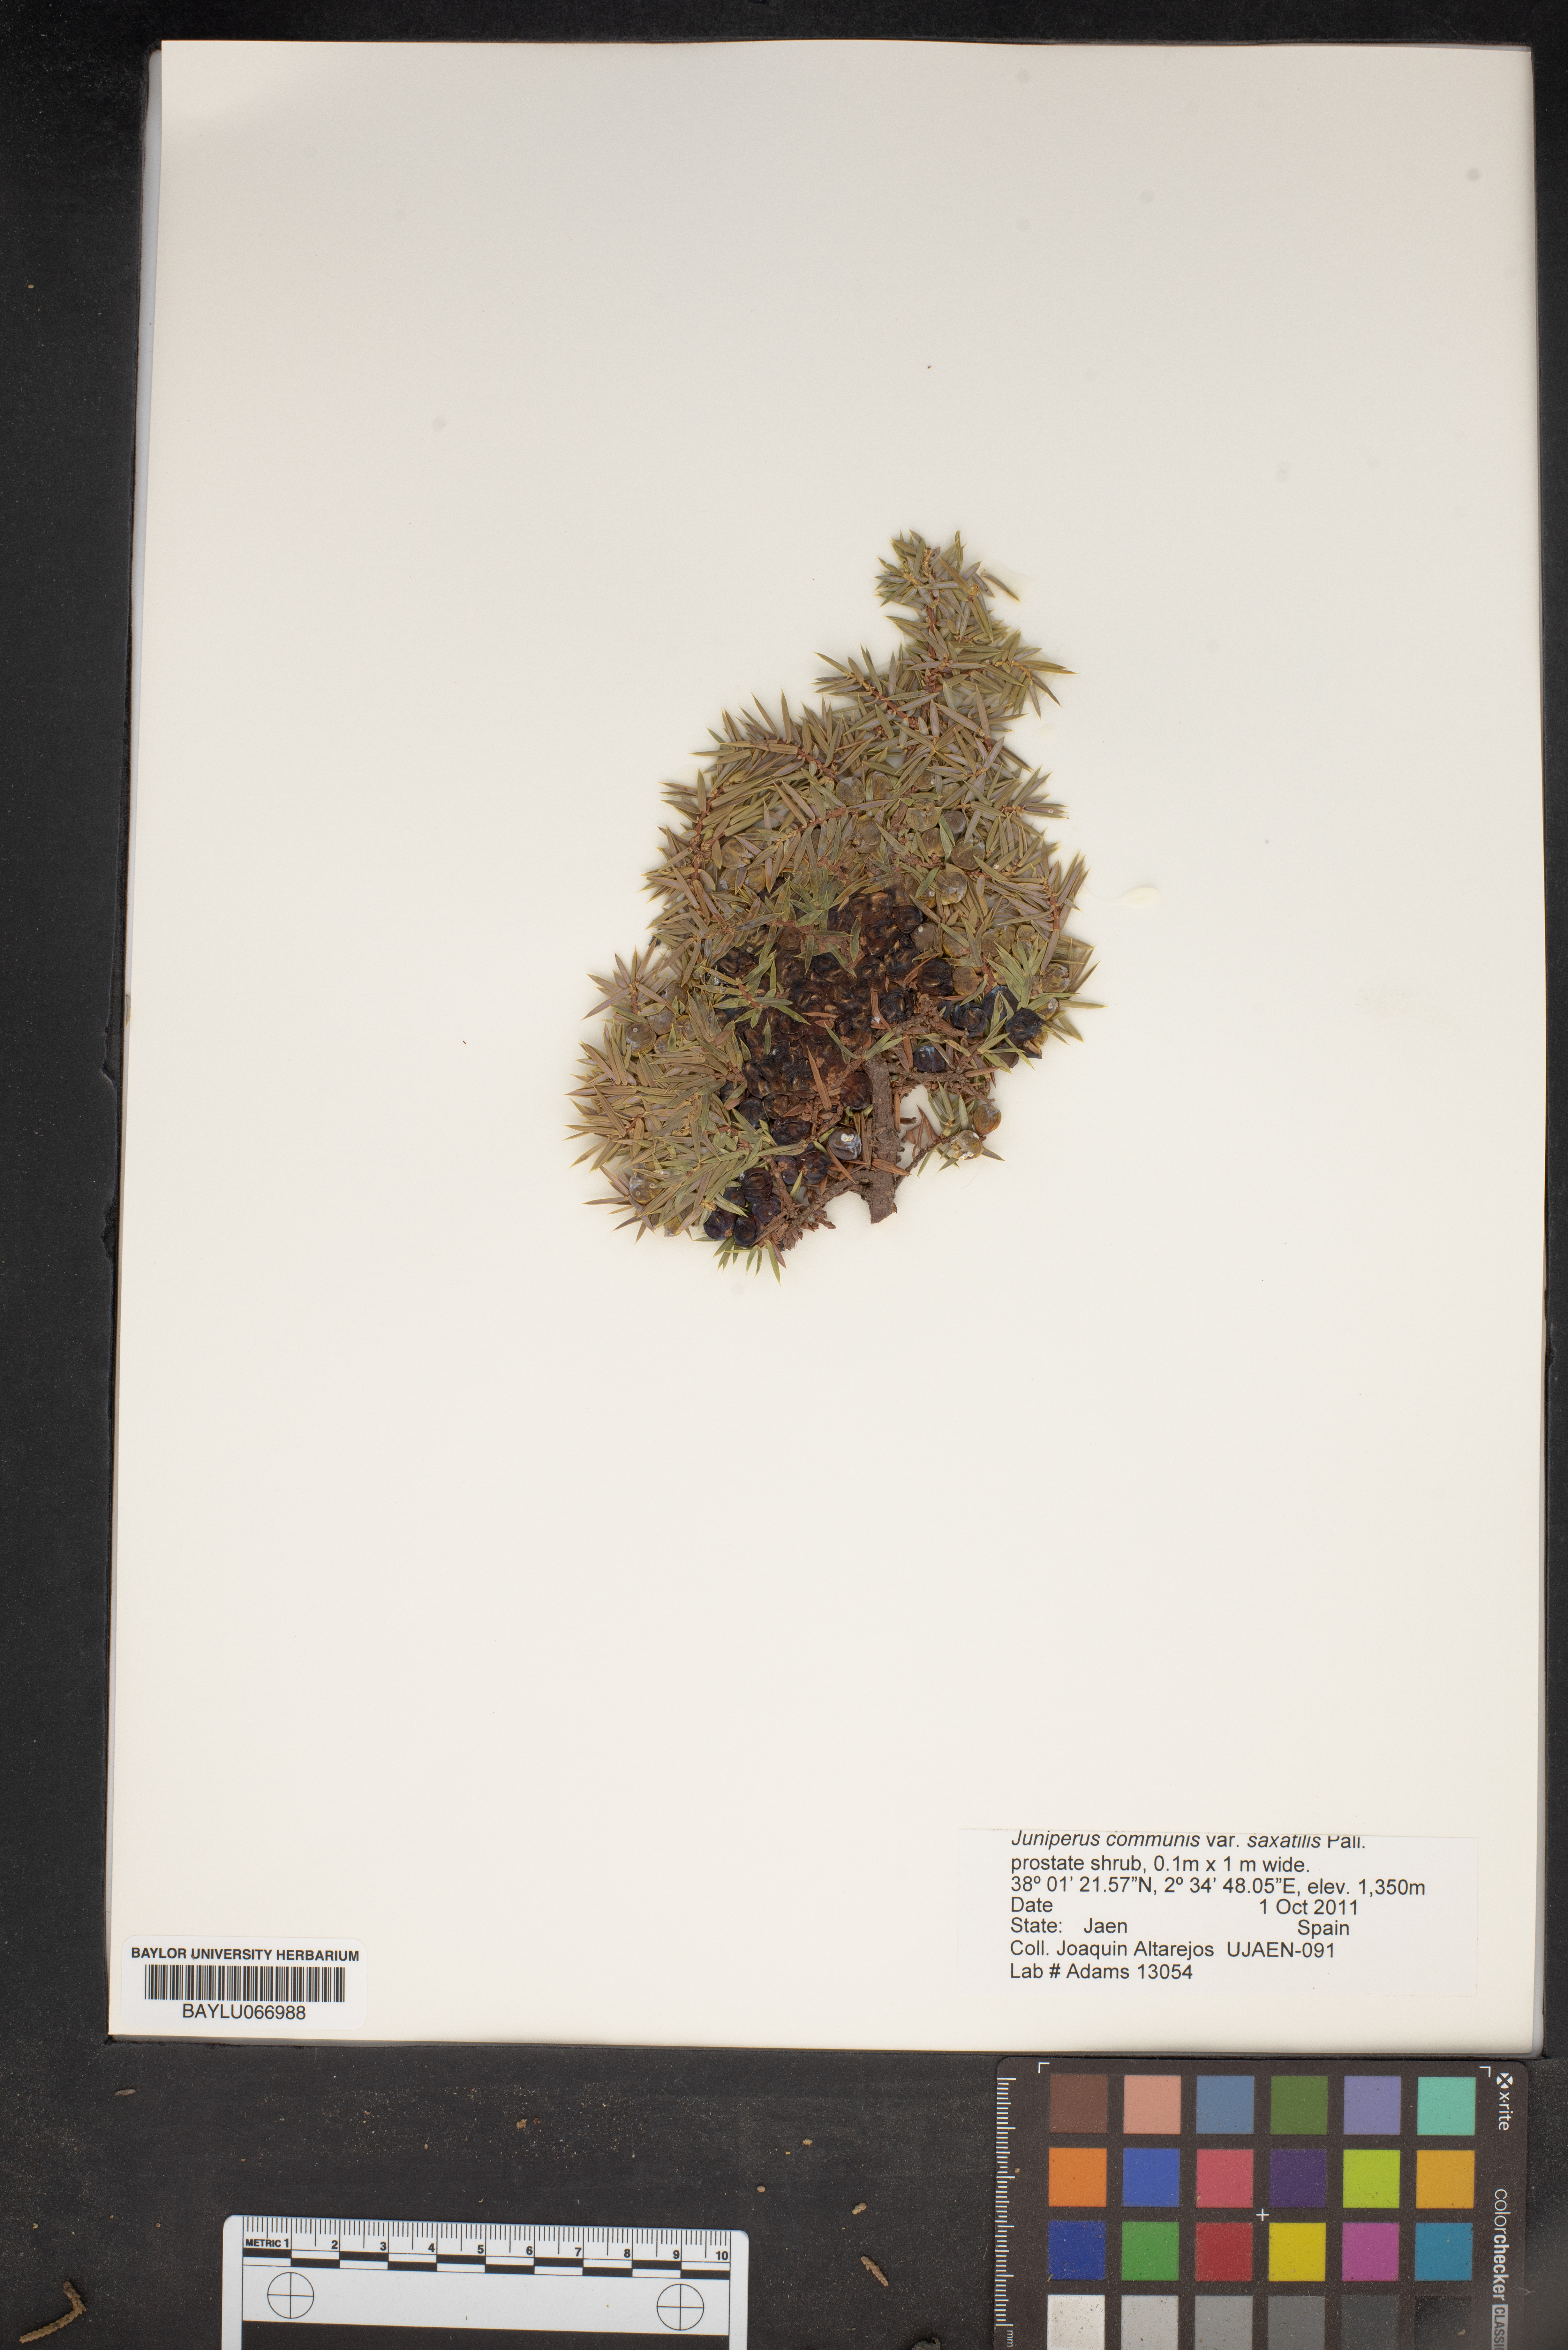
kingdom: Plantae
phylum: Tracheophyta
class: Pinopsida
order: Pinales
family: Cupressaceae
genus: Juniperus
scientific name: Juniperus communis
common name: Common juniper
